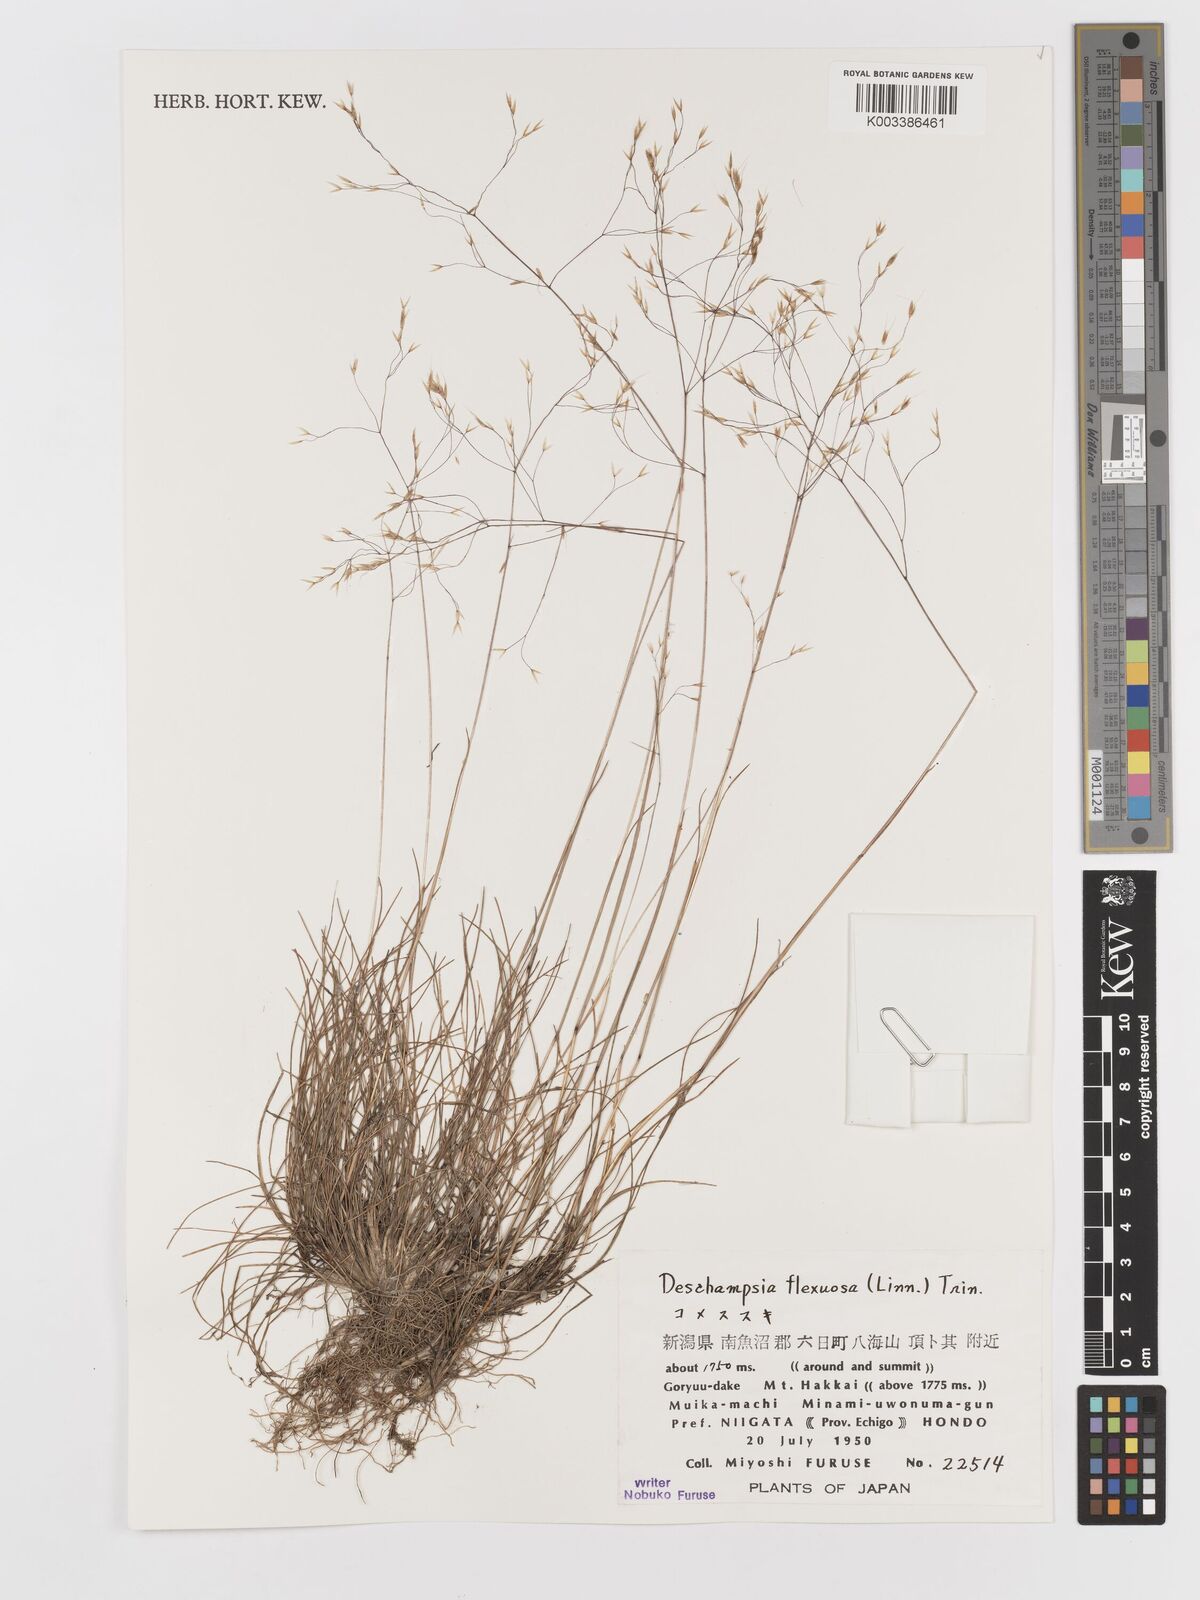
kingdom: Plantae
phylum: Tracheophyta
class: Liliopsida
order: Poales
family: Poaceae
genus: Avenella
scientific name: Avenella flexuosa
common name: Wavy hairgrass
